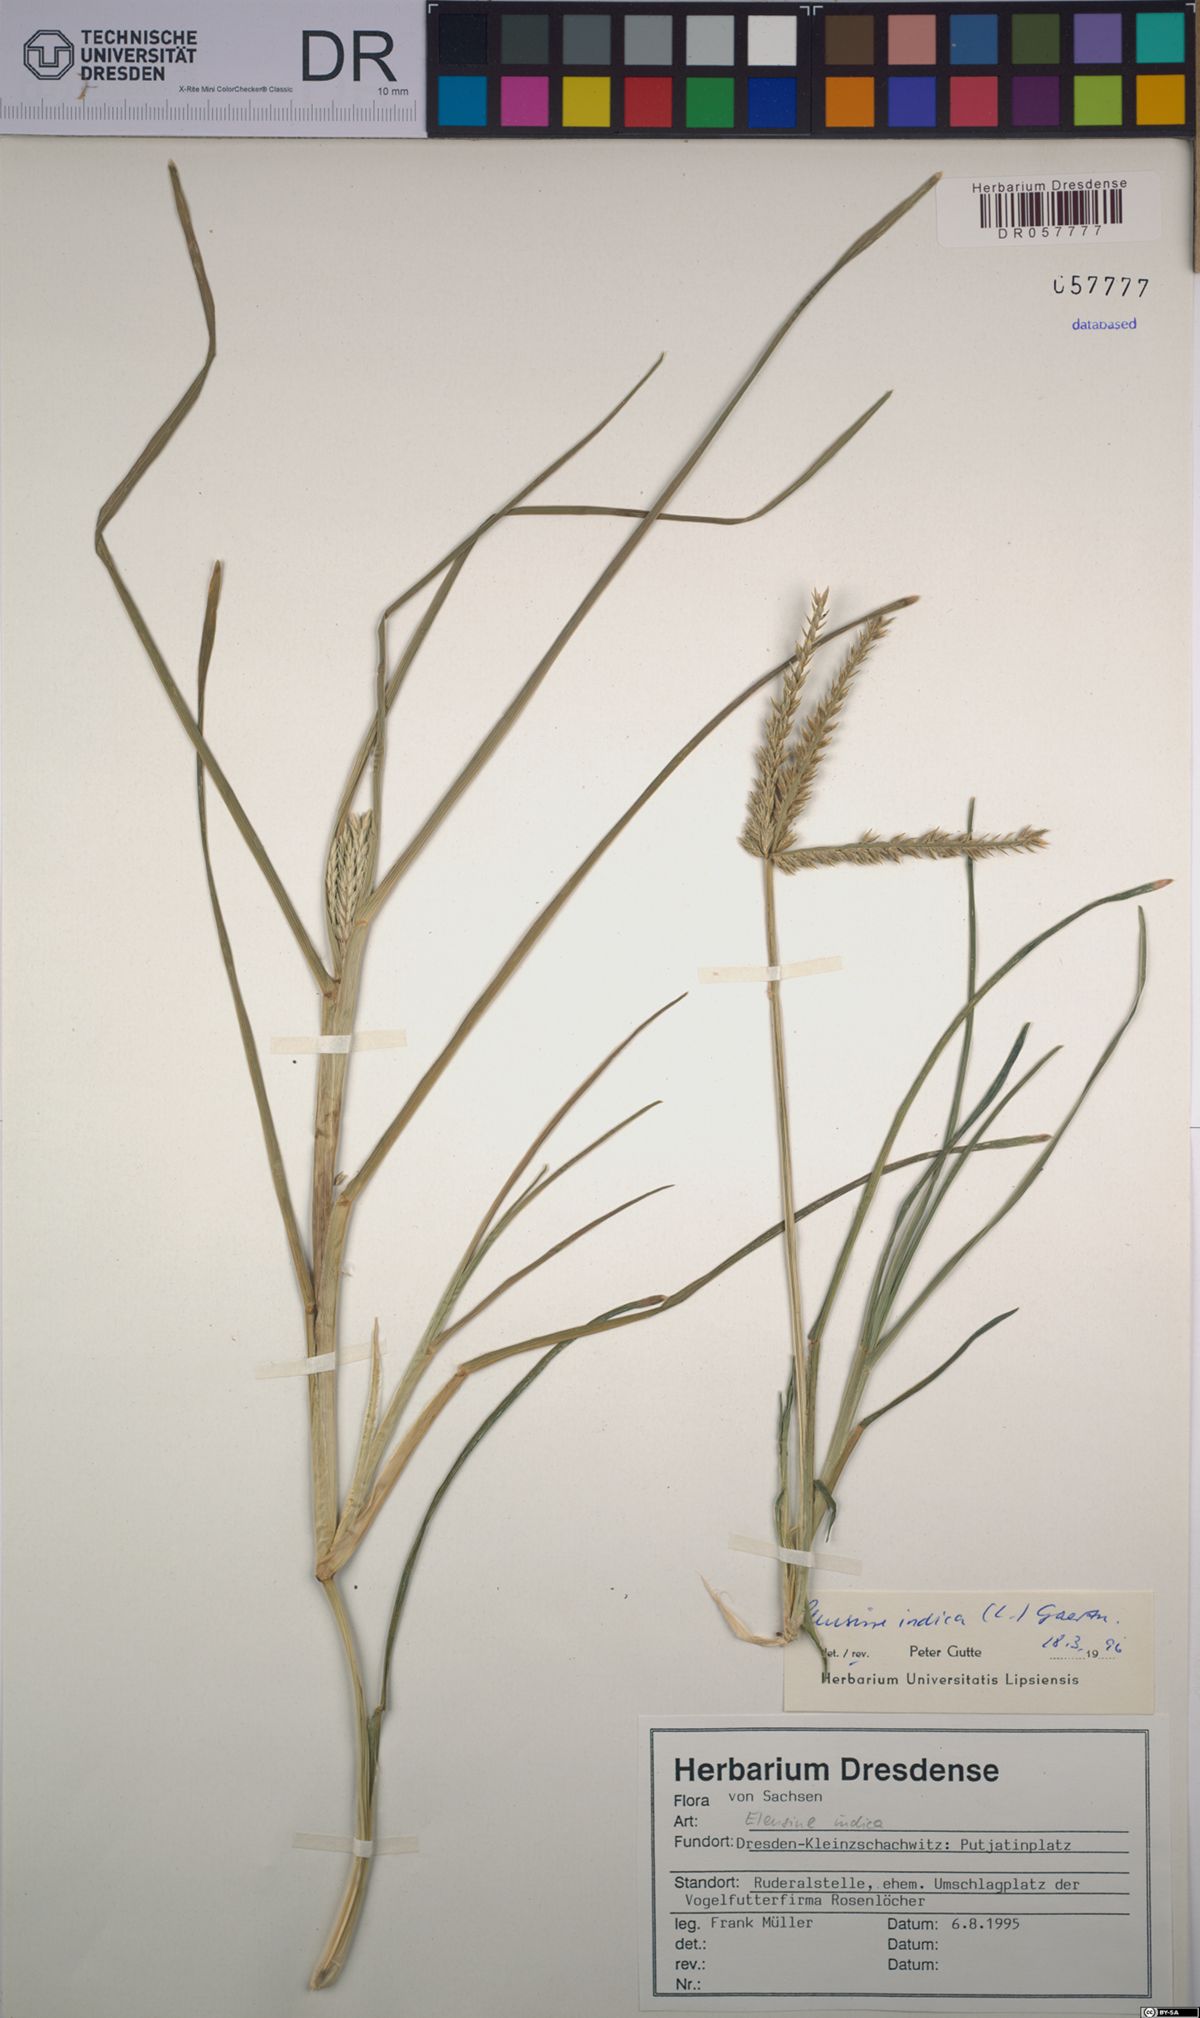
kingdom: Plantae
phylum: Tracheophyta
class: Liliopsida
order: Poales
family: Poaceae
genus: Eleusine
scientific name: Eleusine indica
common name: Yard-grass
